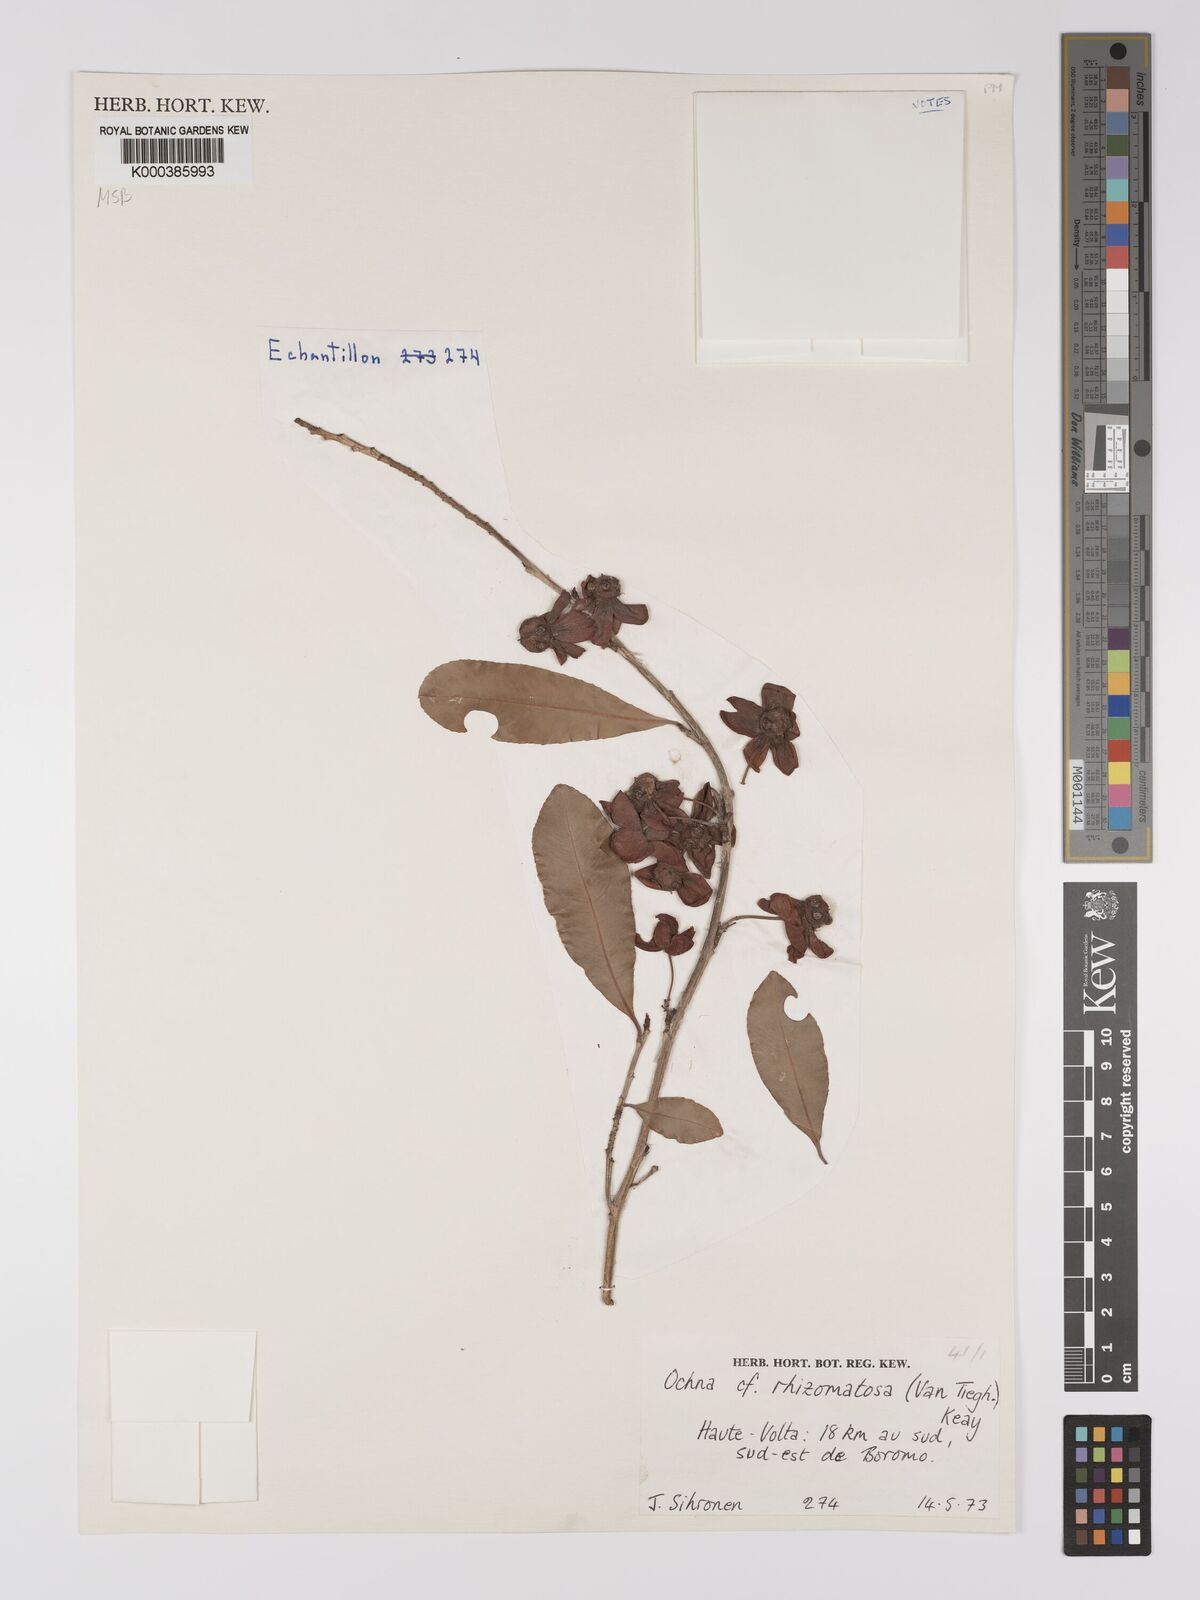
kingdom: Plantae
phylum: Tracheophyta
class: Magnoliopsida
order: Malpighiales
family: Ochnaceae
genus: Ochna
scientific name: Ochna rhizomatosa
